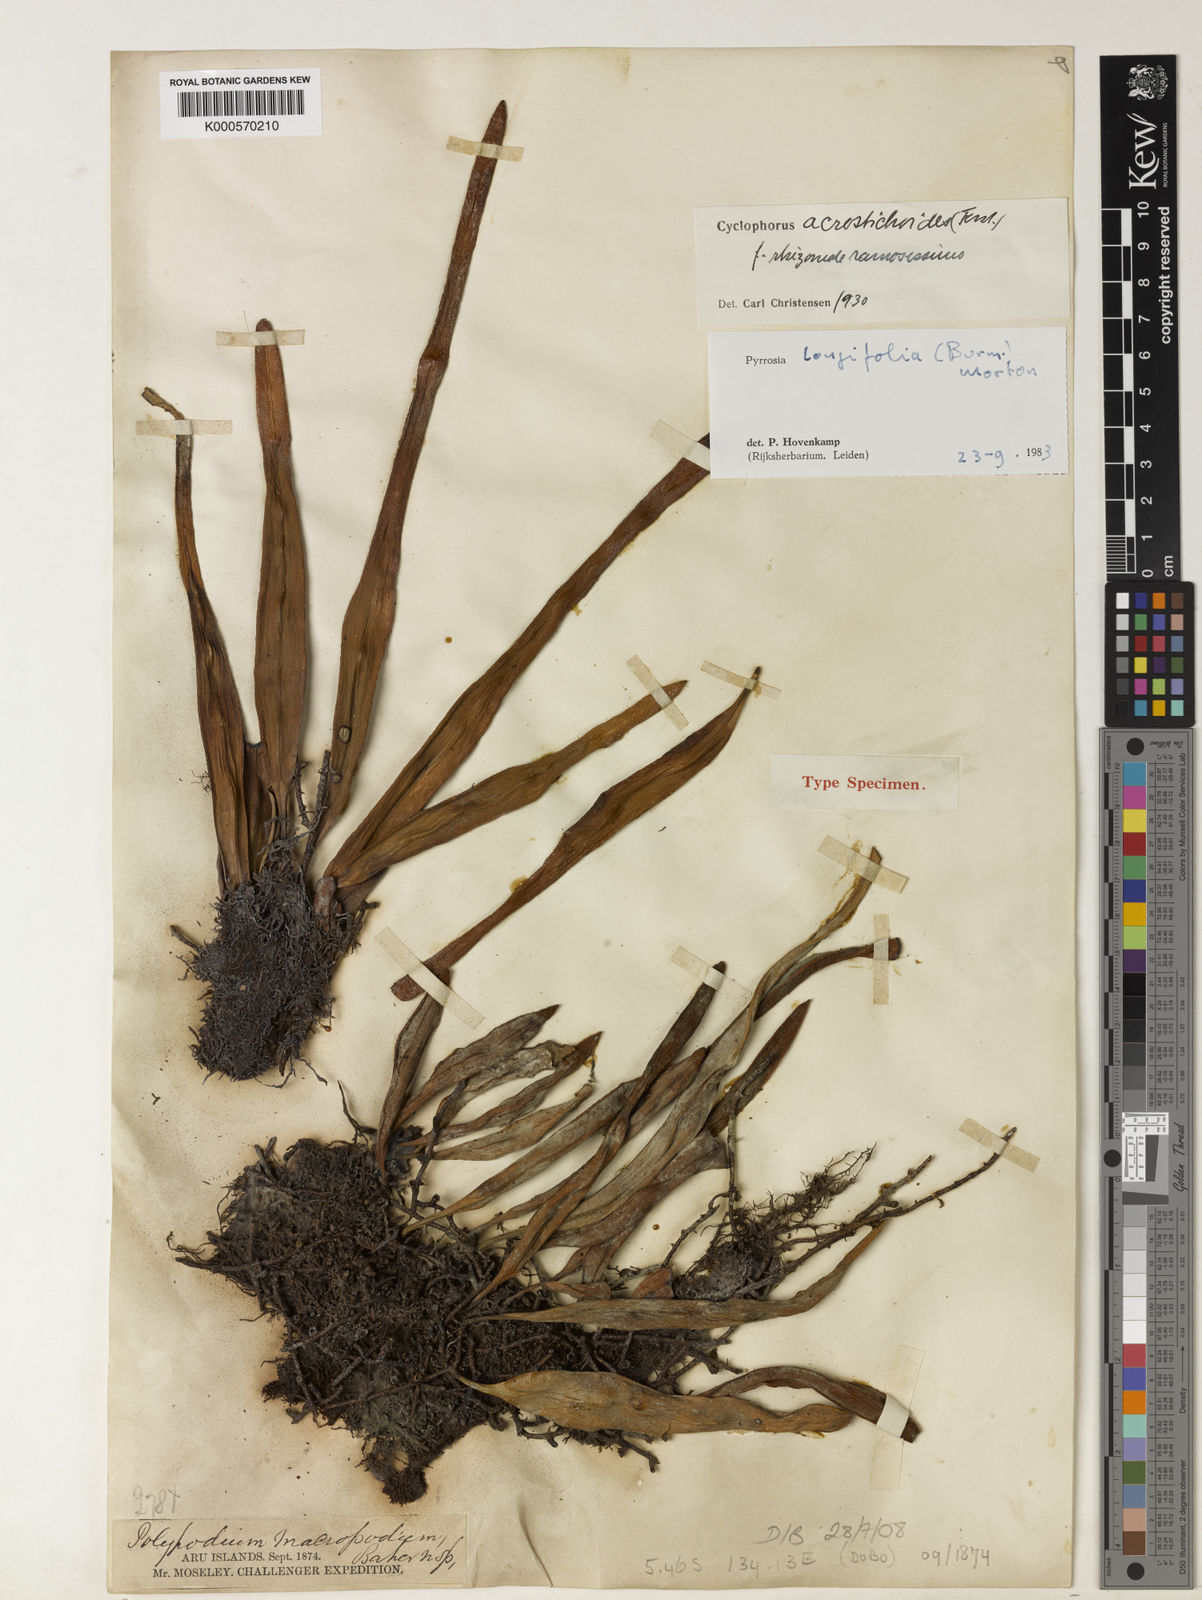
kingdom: Plantae
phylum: Tracheophyta
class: Polypodiopsida
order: Polypodiales
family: Polypodiaceae
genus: Pyrrosia
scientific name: Pyrrosia longifolia
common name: Long-leaved felt fern
